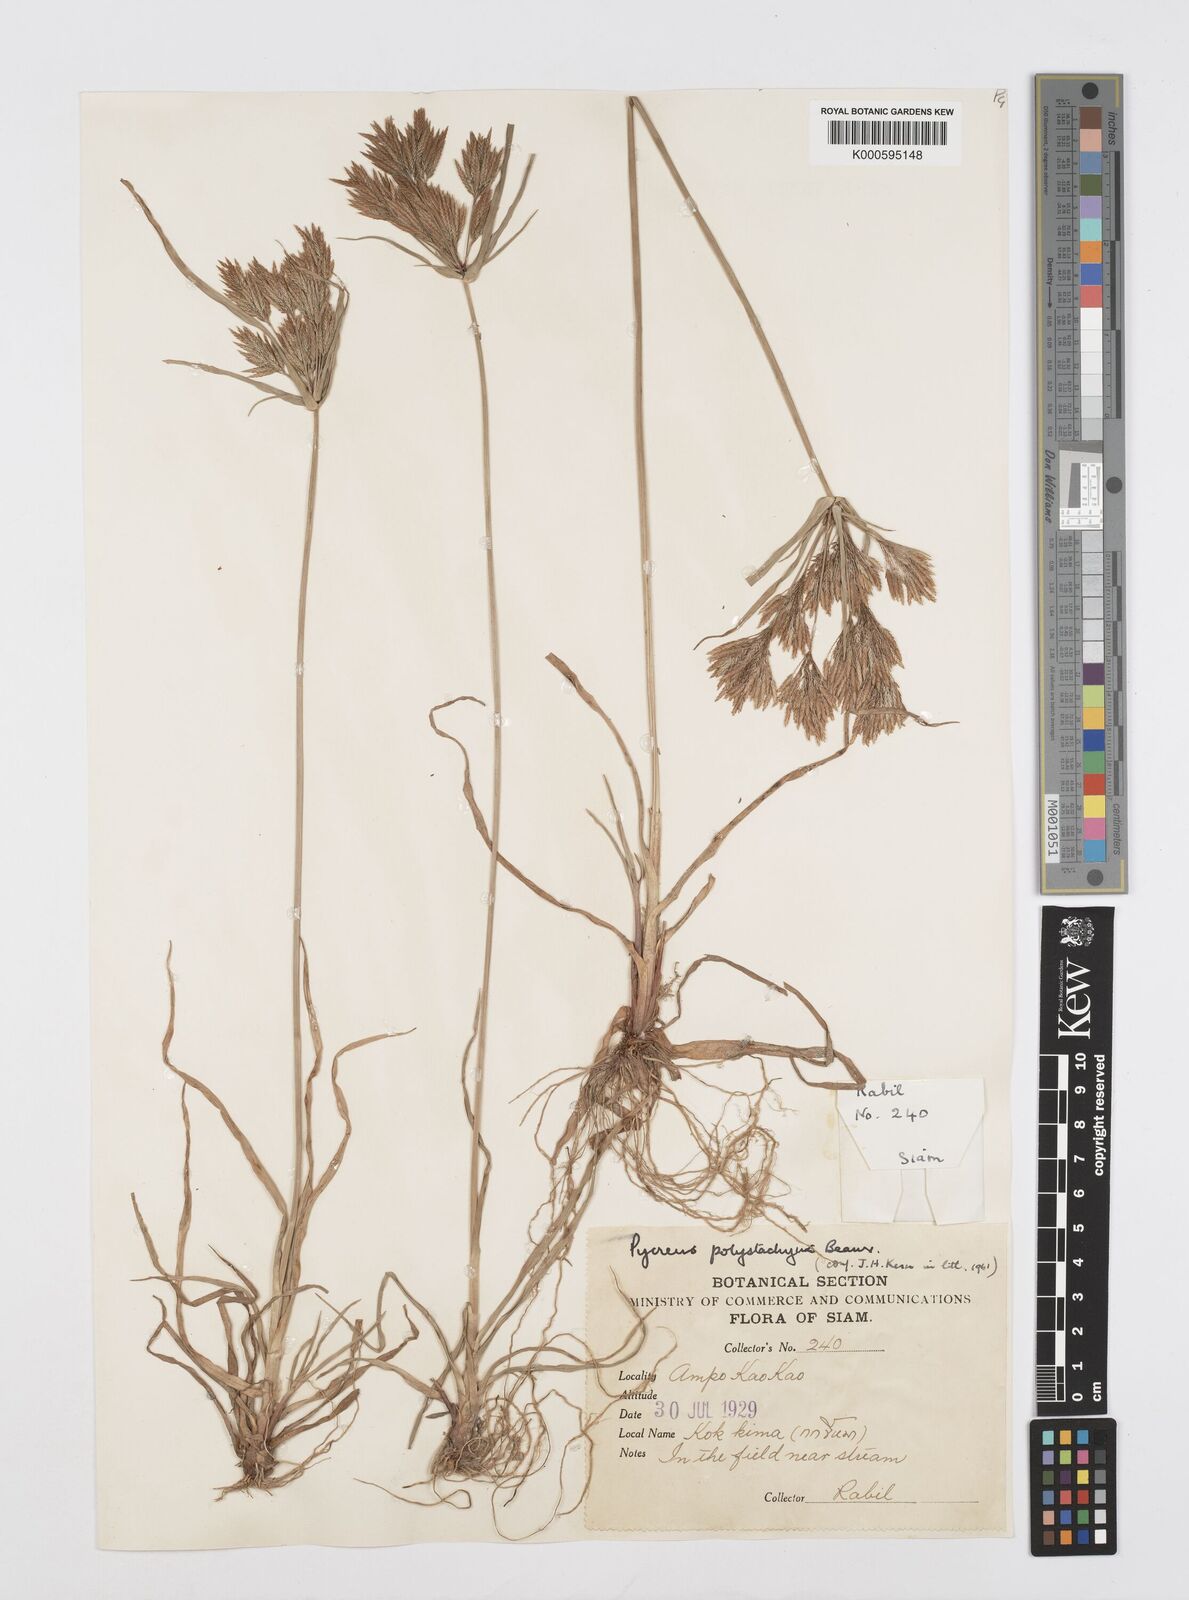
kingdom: Plantae
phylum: Tracheophyta
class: Liliopsida
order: Poales
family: Cyperaceae
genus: Cyperus
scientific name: Cyperus polystachyos
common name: Bunchy flat sedge
